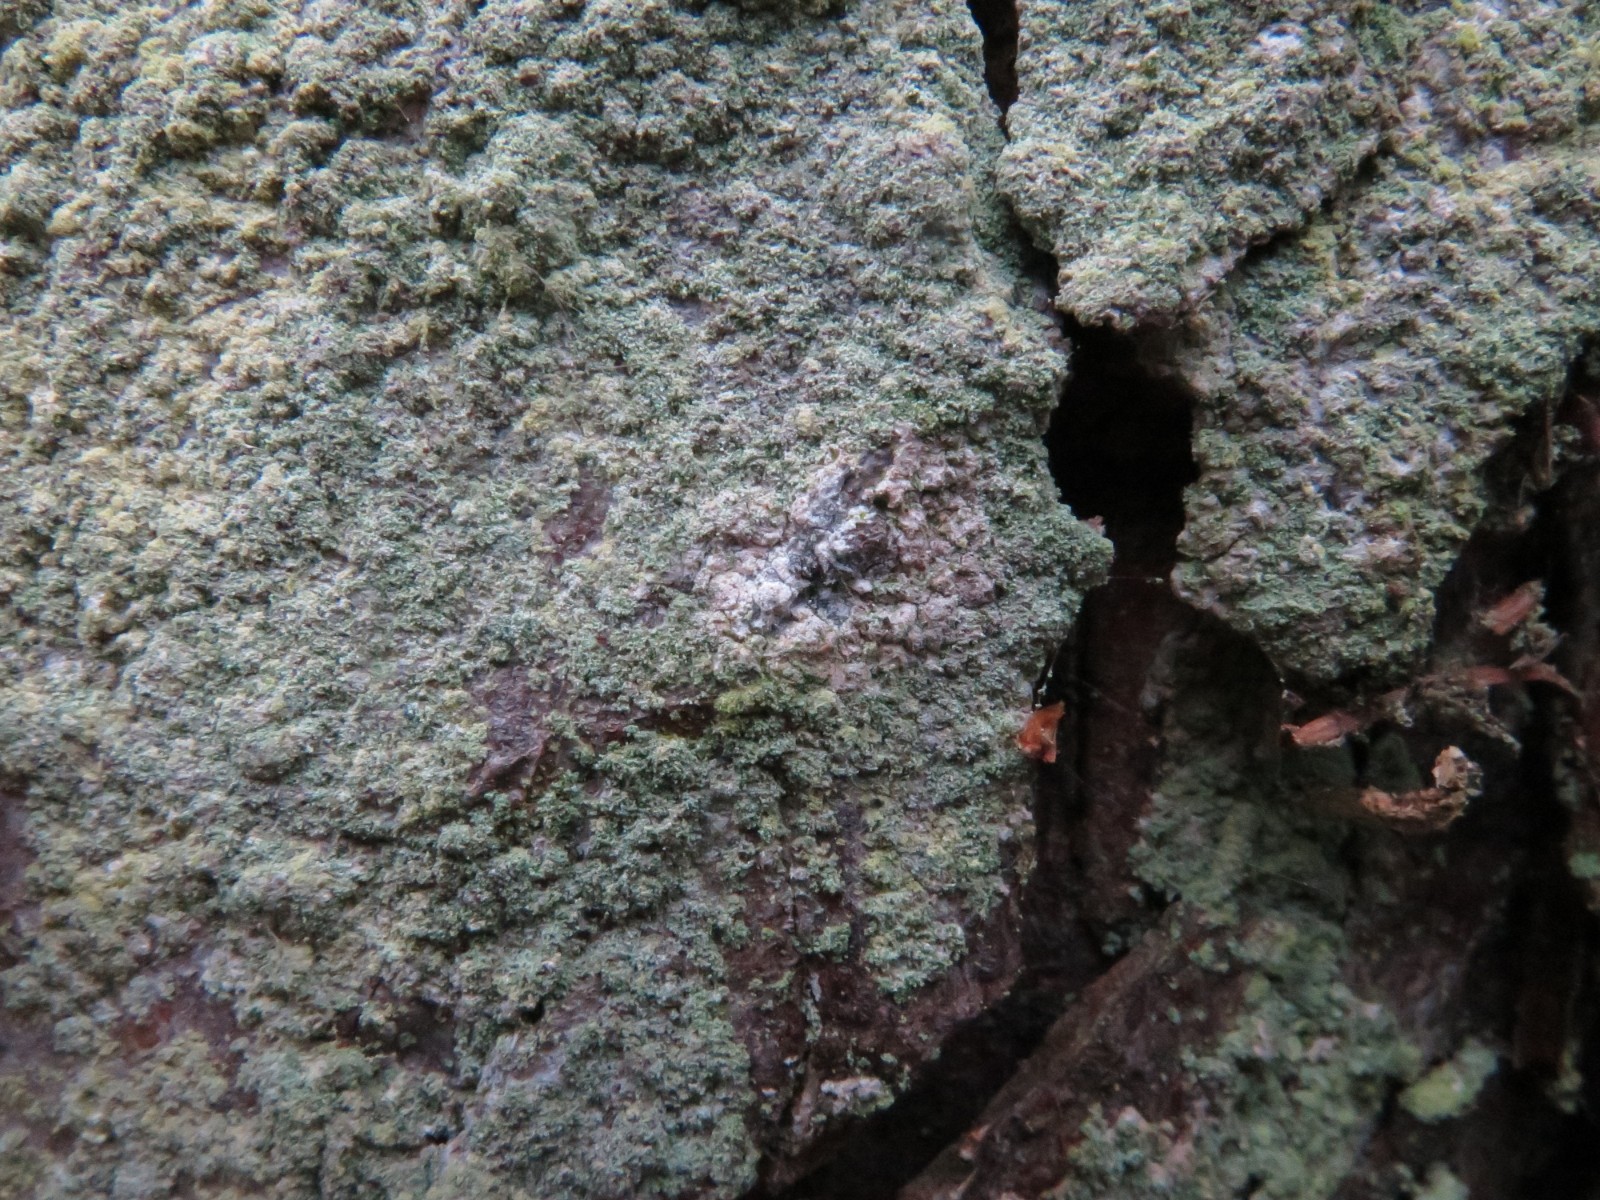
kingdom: Fungi
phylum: Ascomycota
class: Lecanoromycetes
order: Lecanorales
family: Stereocaulaceae
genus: Lepraria
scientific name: Lepraria incana
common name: almindelig støvlav
